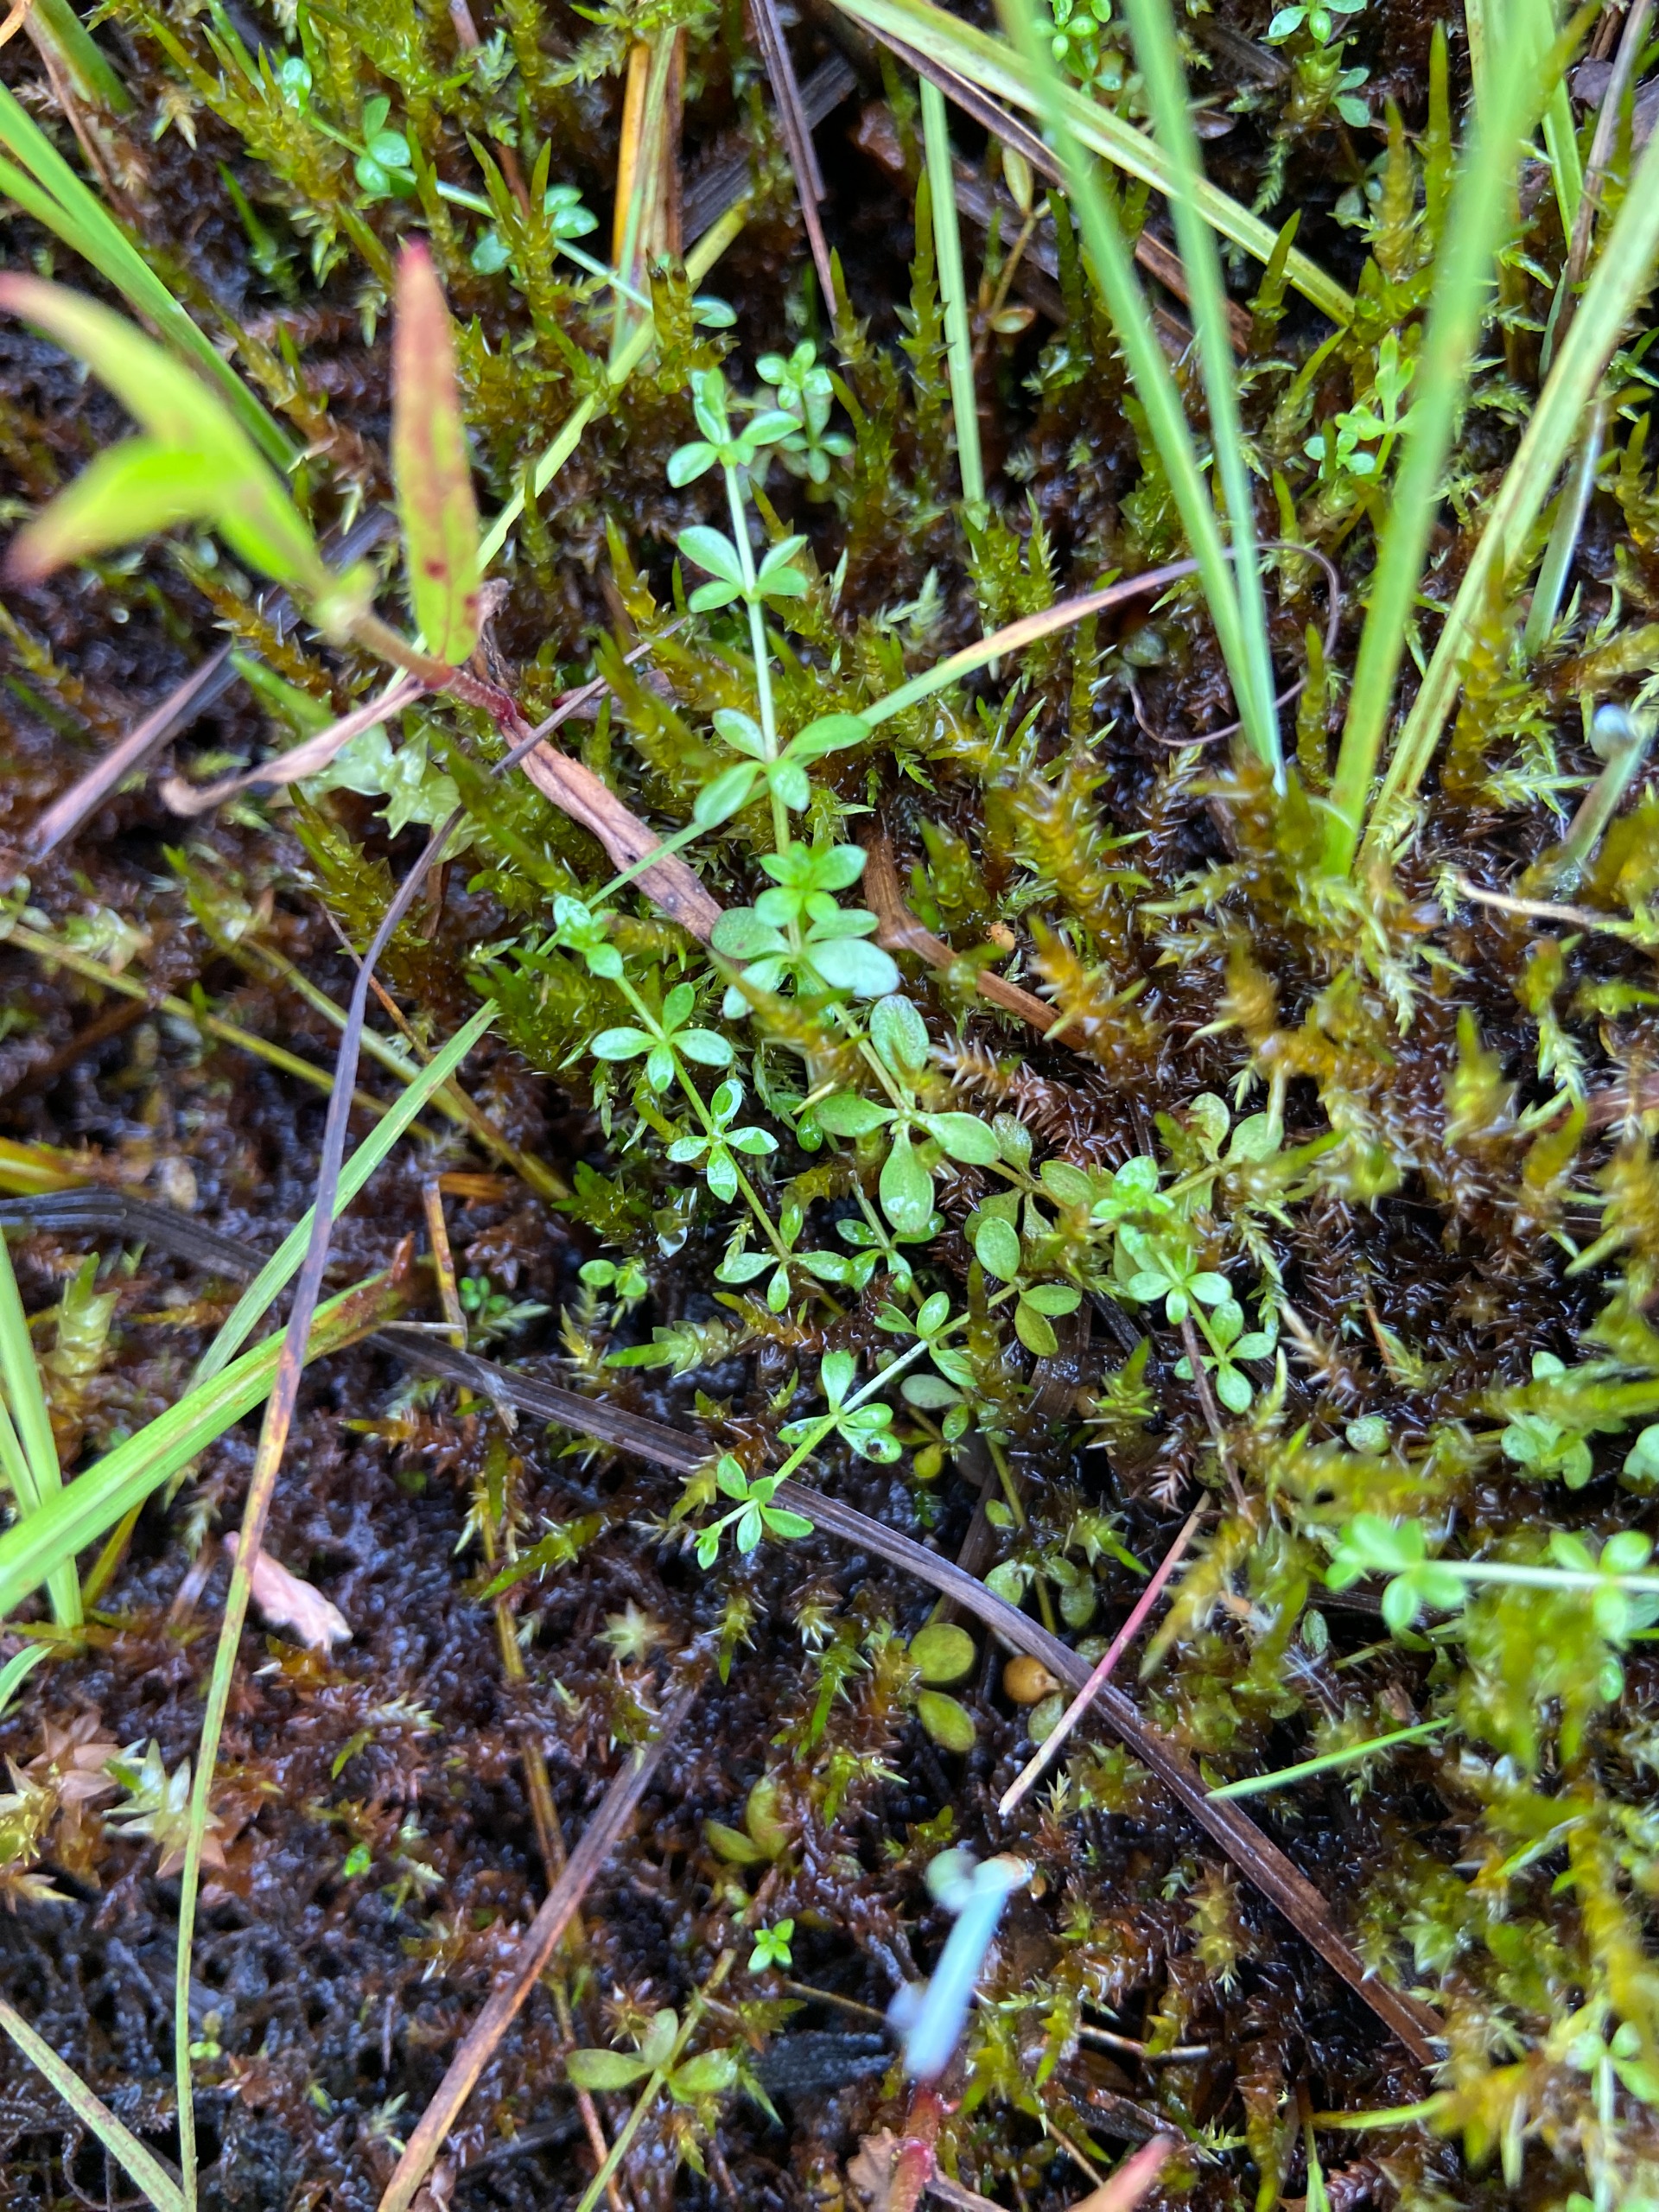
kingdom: Plantae
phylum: Tracheophyta
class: Magnoliopsida
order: Gentianales
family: Rubiaceae
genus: Galium
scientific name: Galium palustre
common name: Kær-snerre
